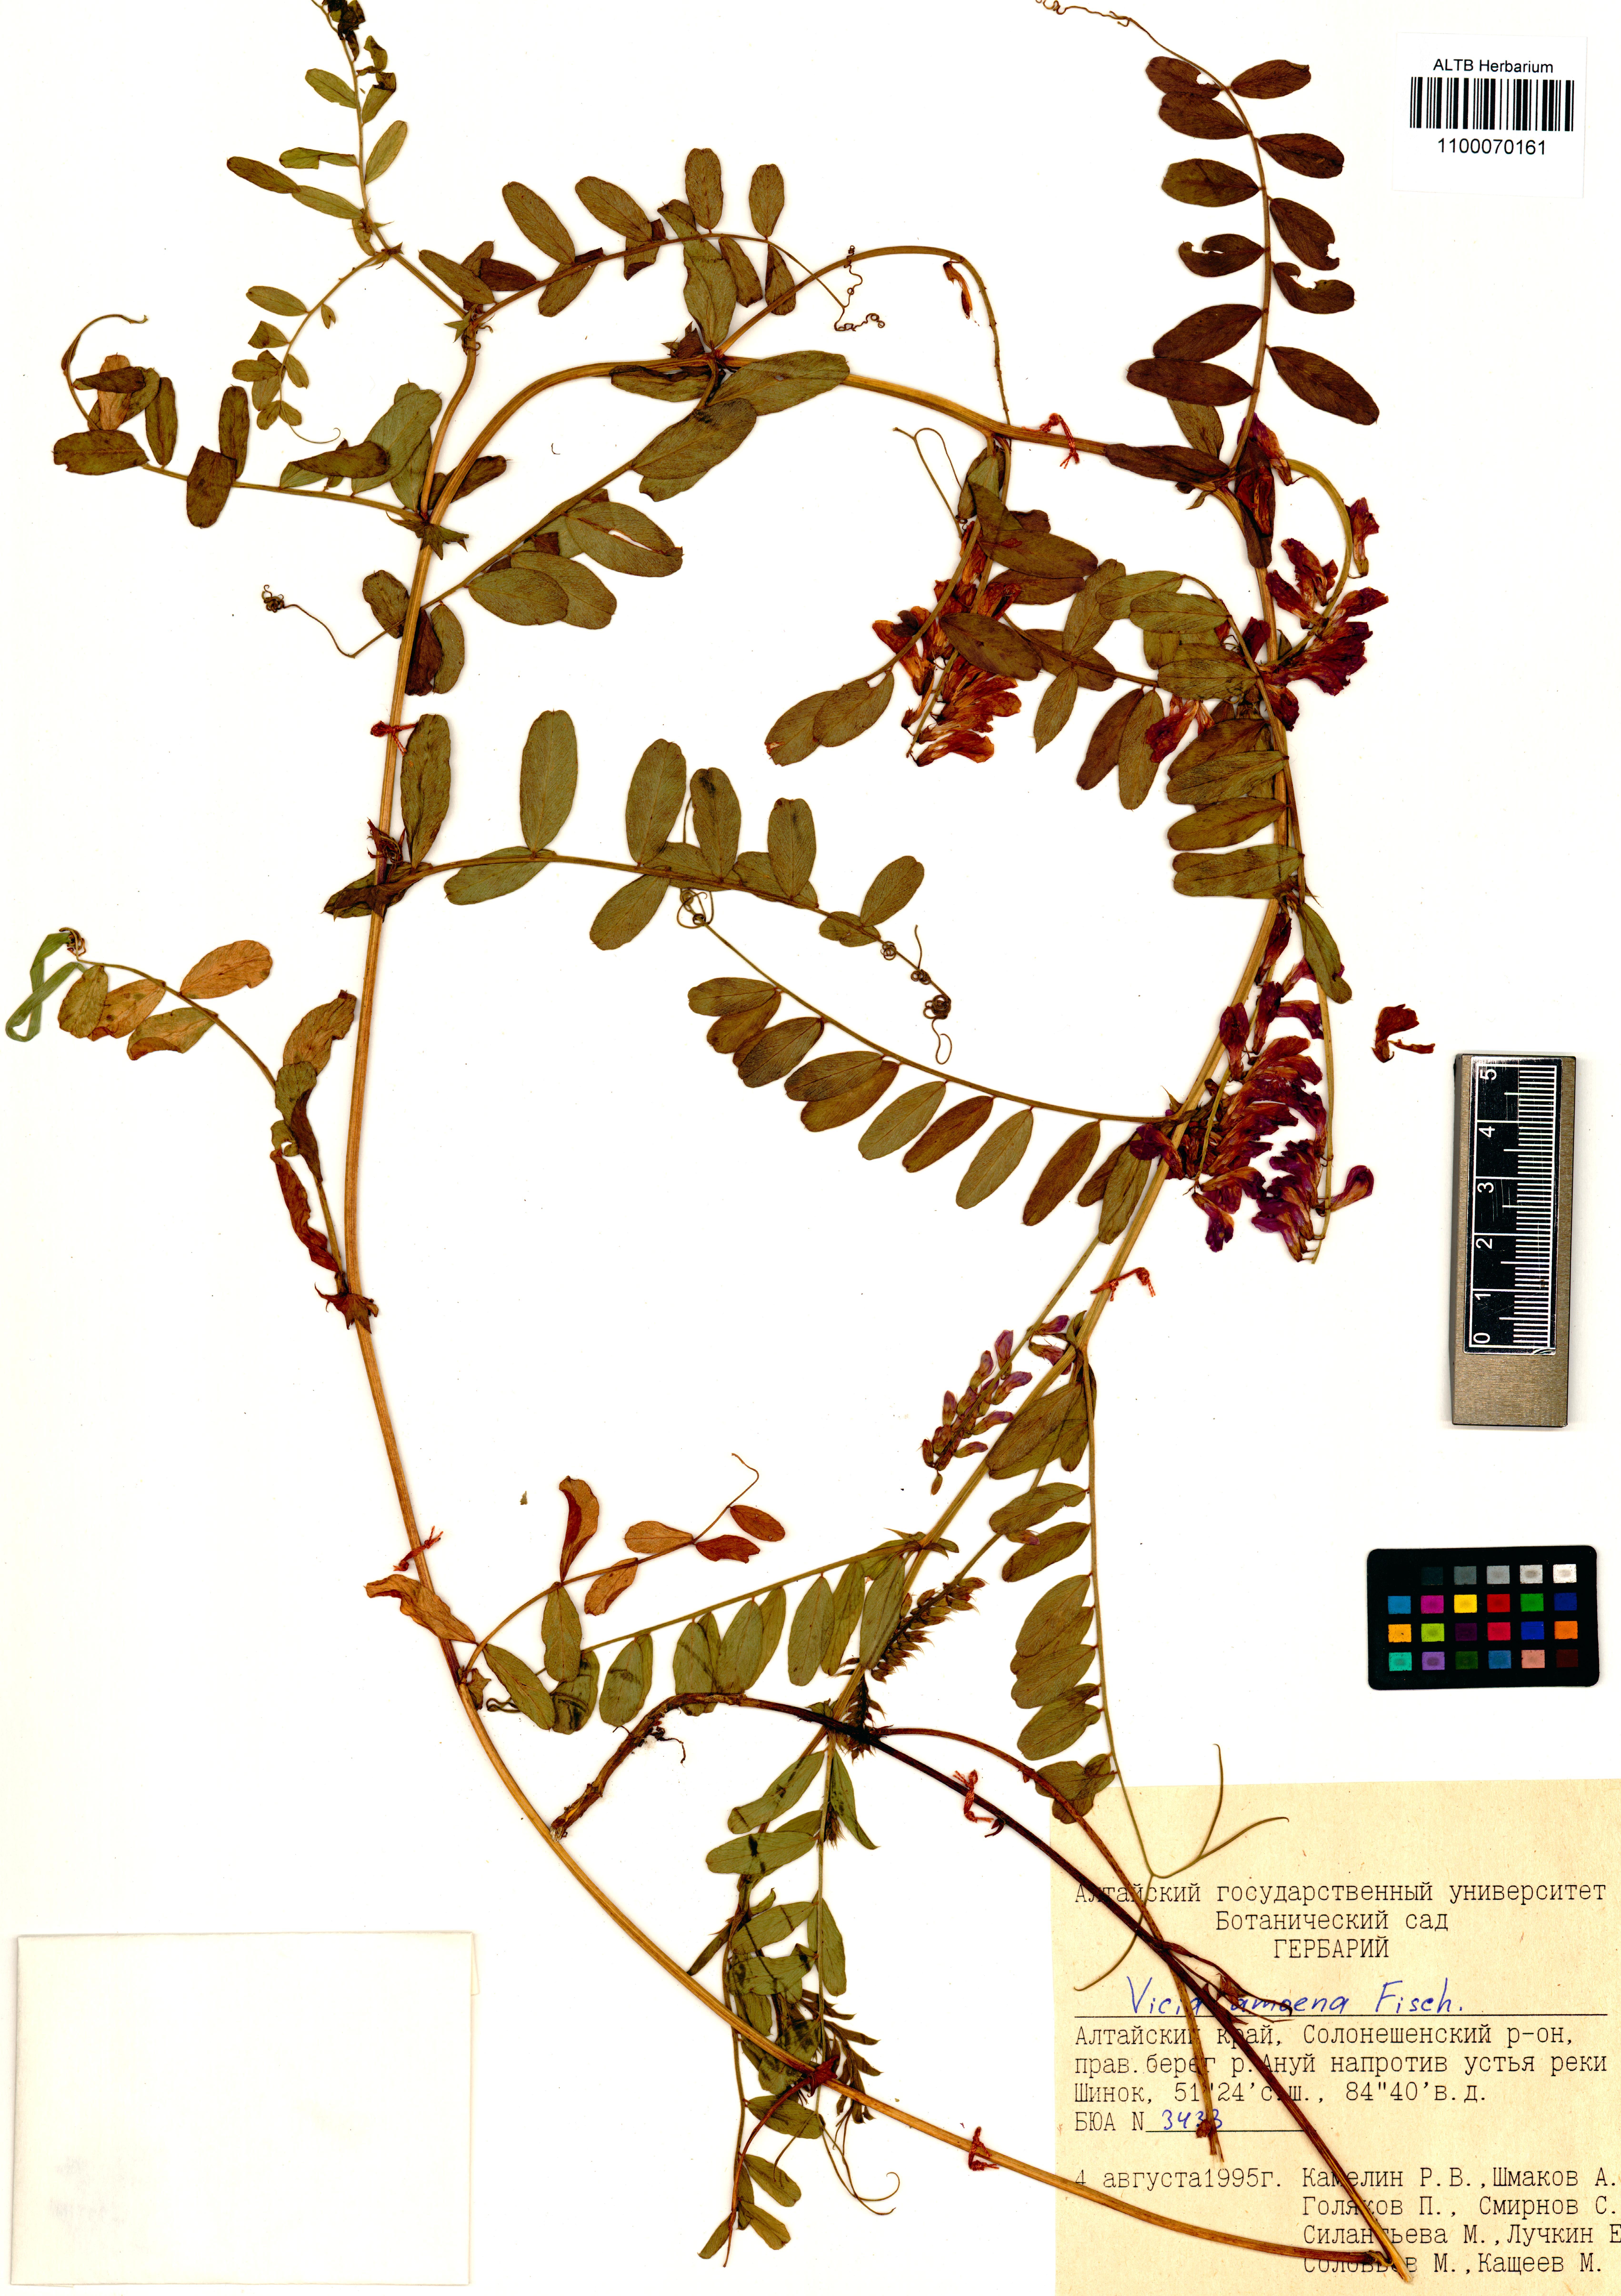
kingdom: Plantae
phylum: Tracheophyta
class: Magnoliopsida
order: Fabales
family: Fabaceae
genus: Vicia
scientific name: Vicia amoena
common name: Cheder ebs
